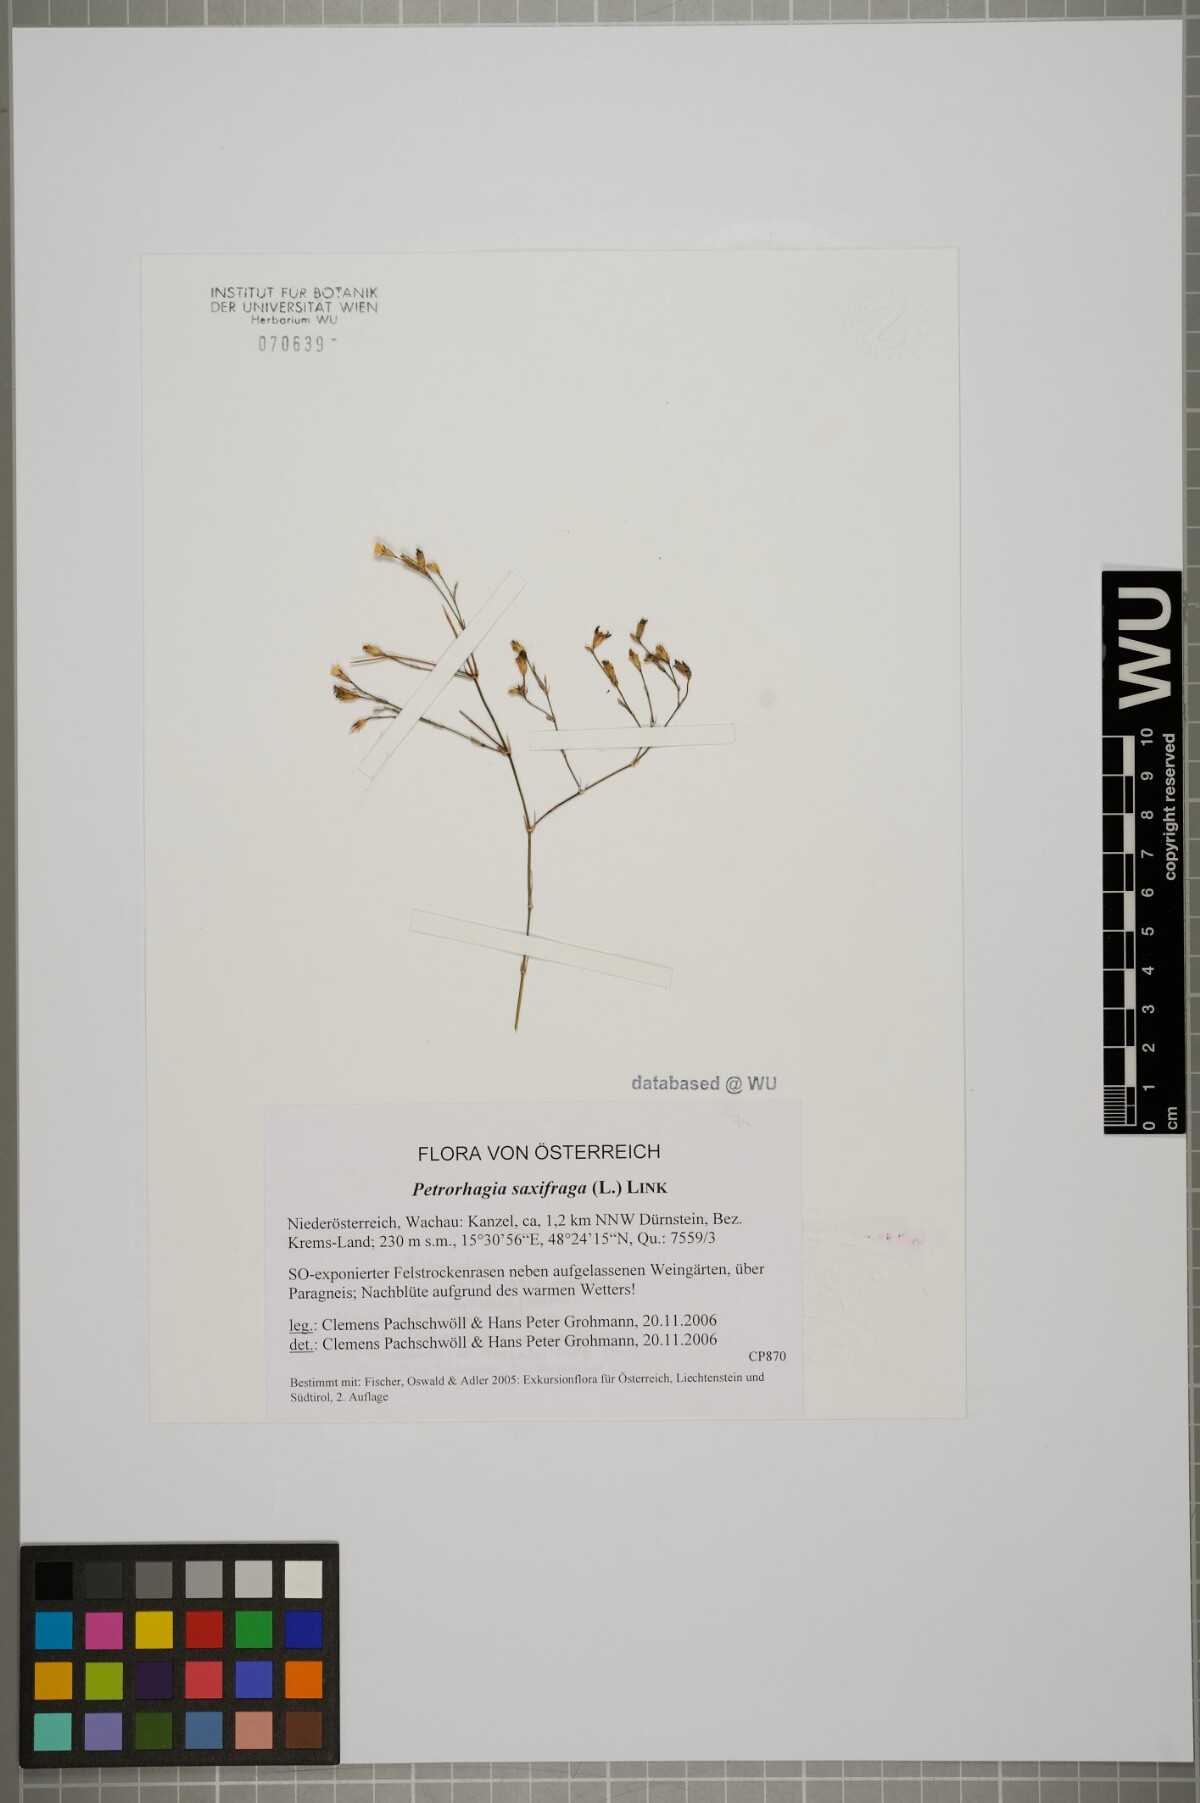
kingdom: Plantae
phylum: Tracheophyta
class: Magnoliopsida
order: Caryophyllales
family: Caryophyllaceae
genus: Petrorhagia
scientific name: Petrorhagia saxifraga
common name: Tunicflower
